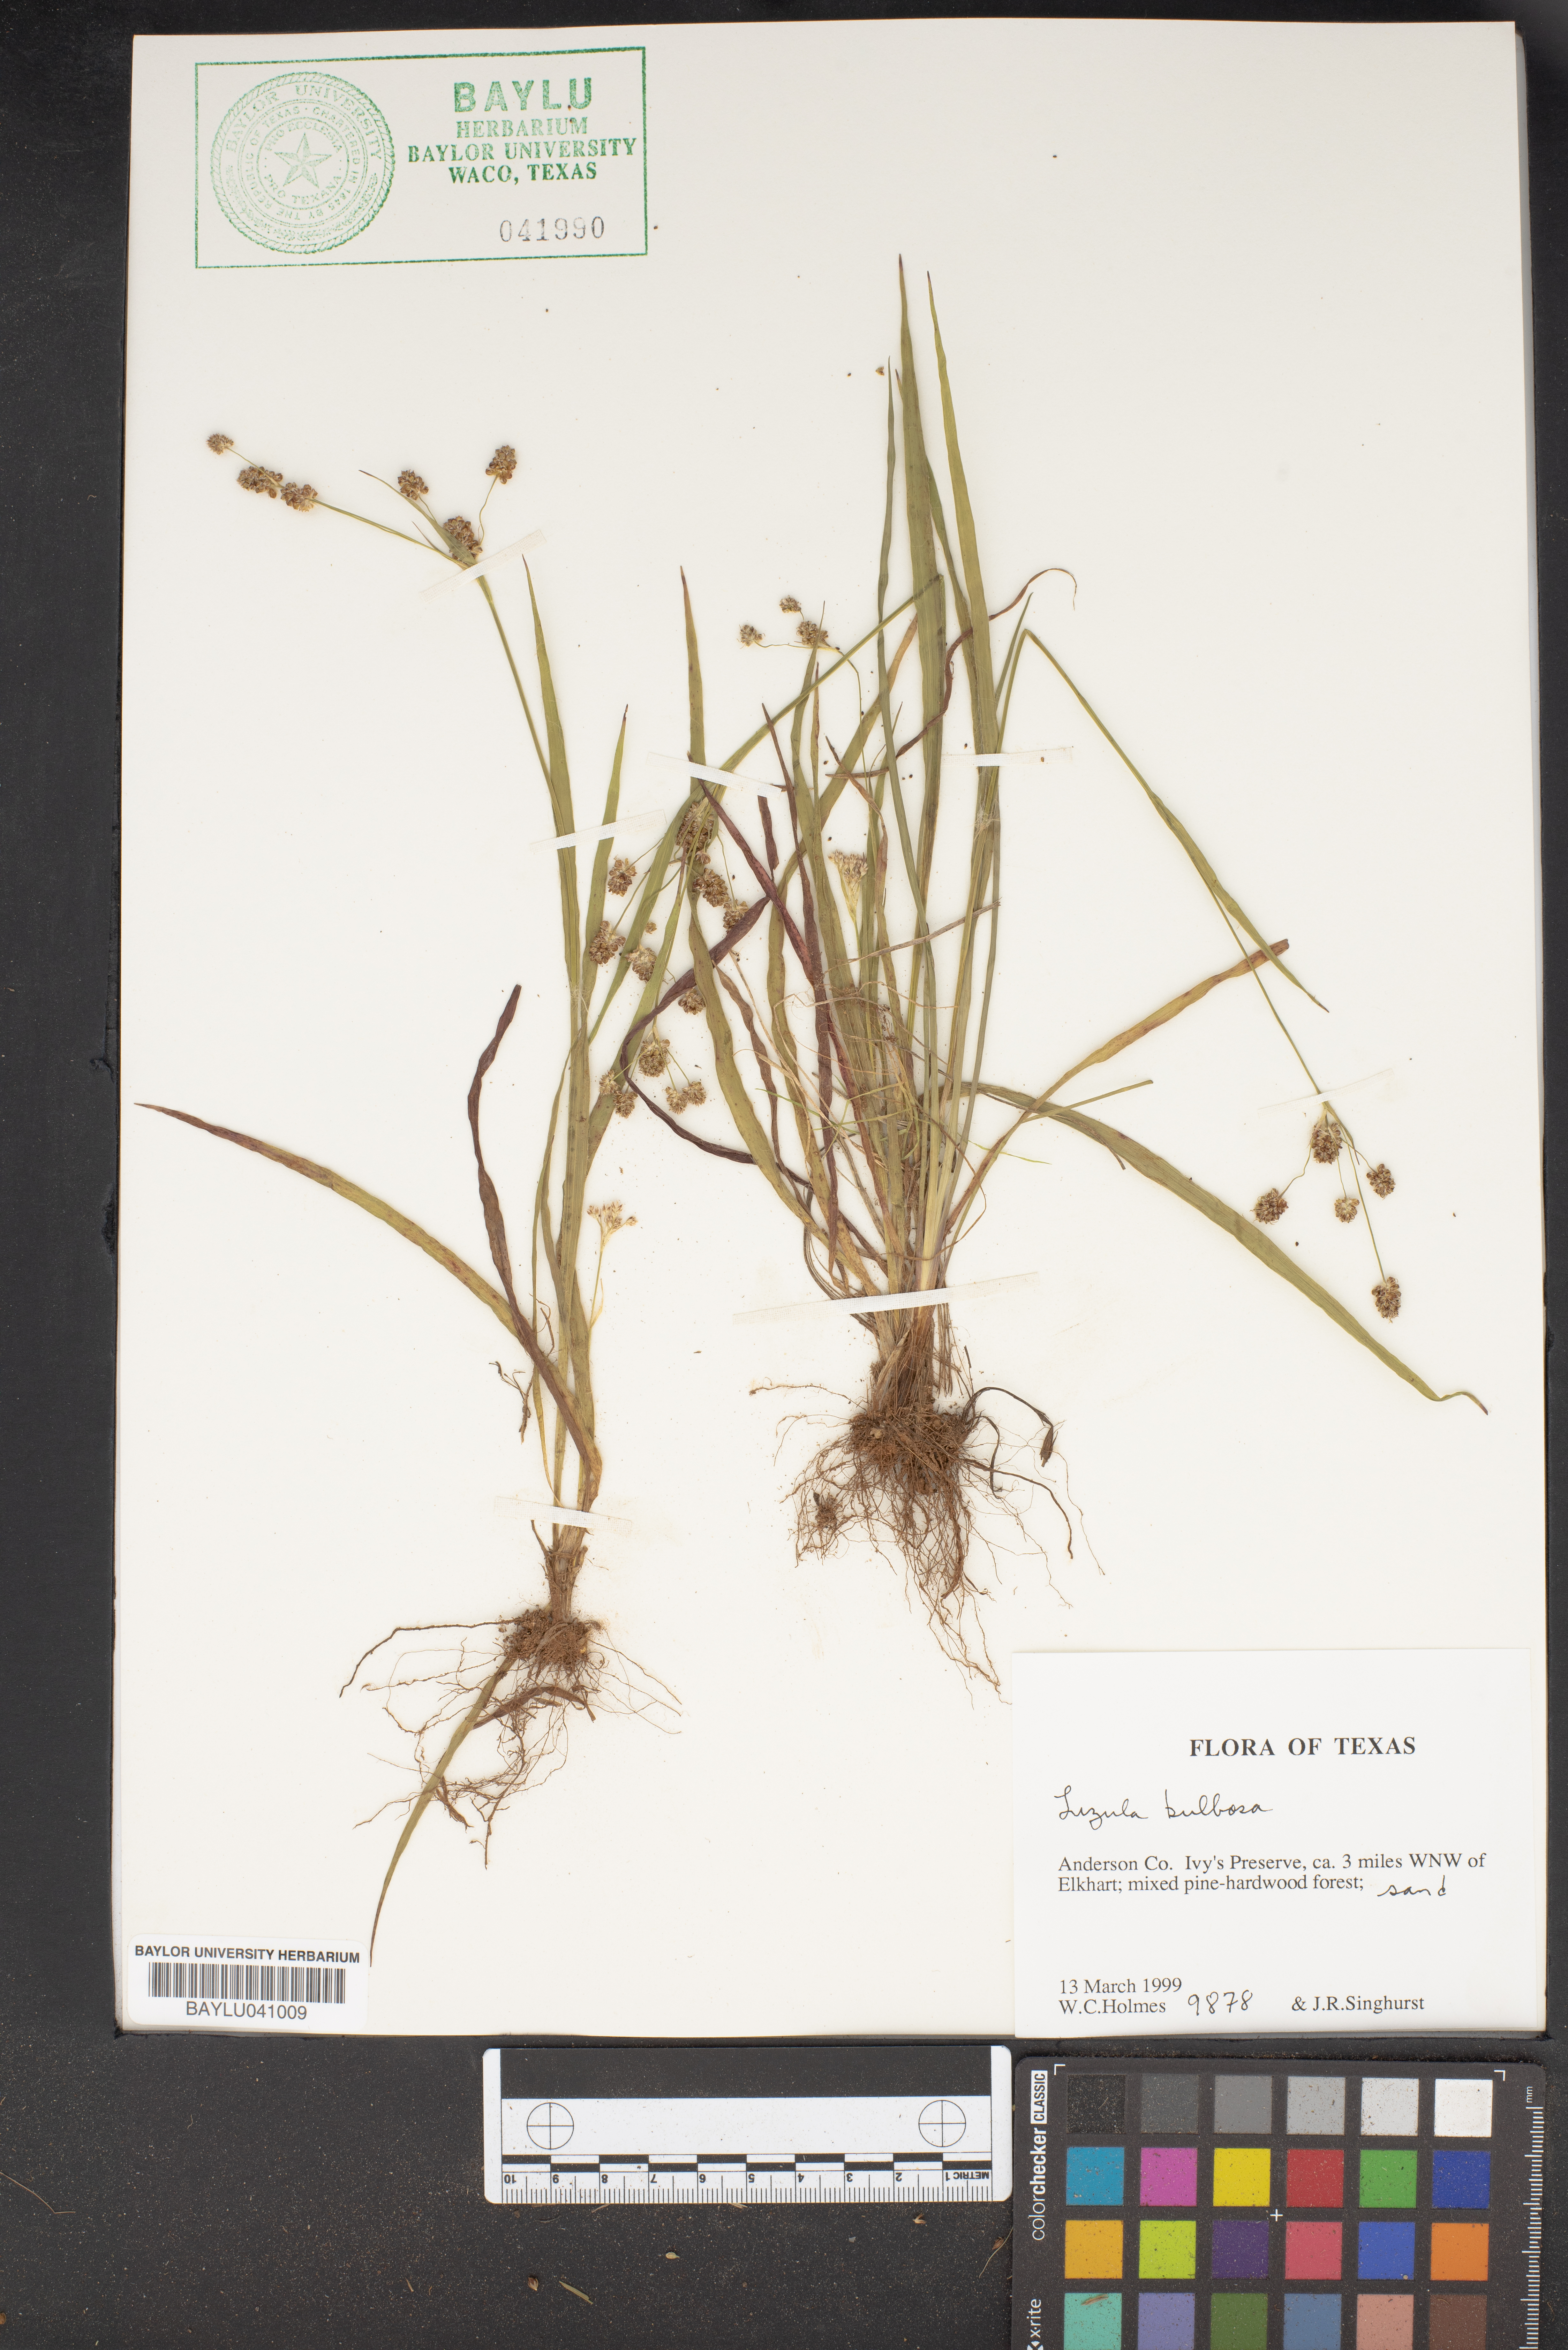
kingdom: Plantae
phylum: Tracheophyta
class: Liliopsida
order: Poales
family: Juncaceae
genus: Luzula
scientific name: Luzula bulbosa
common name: Bulbous woodrush
